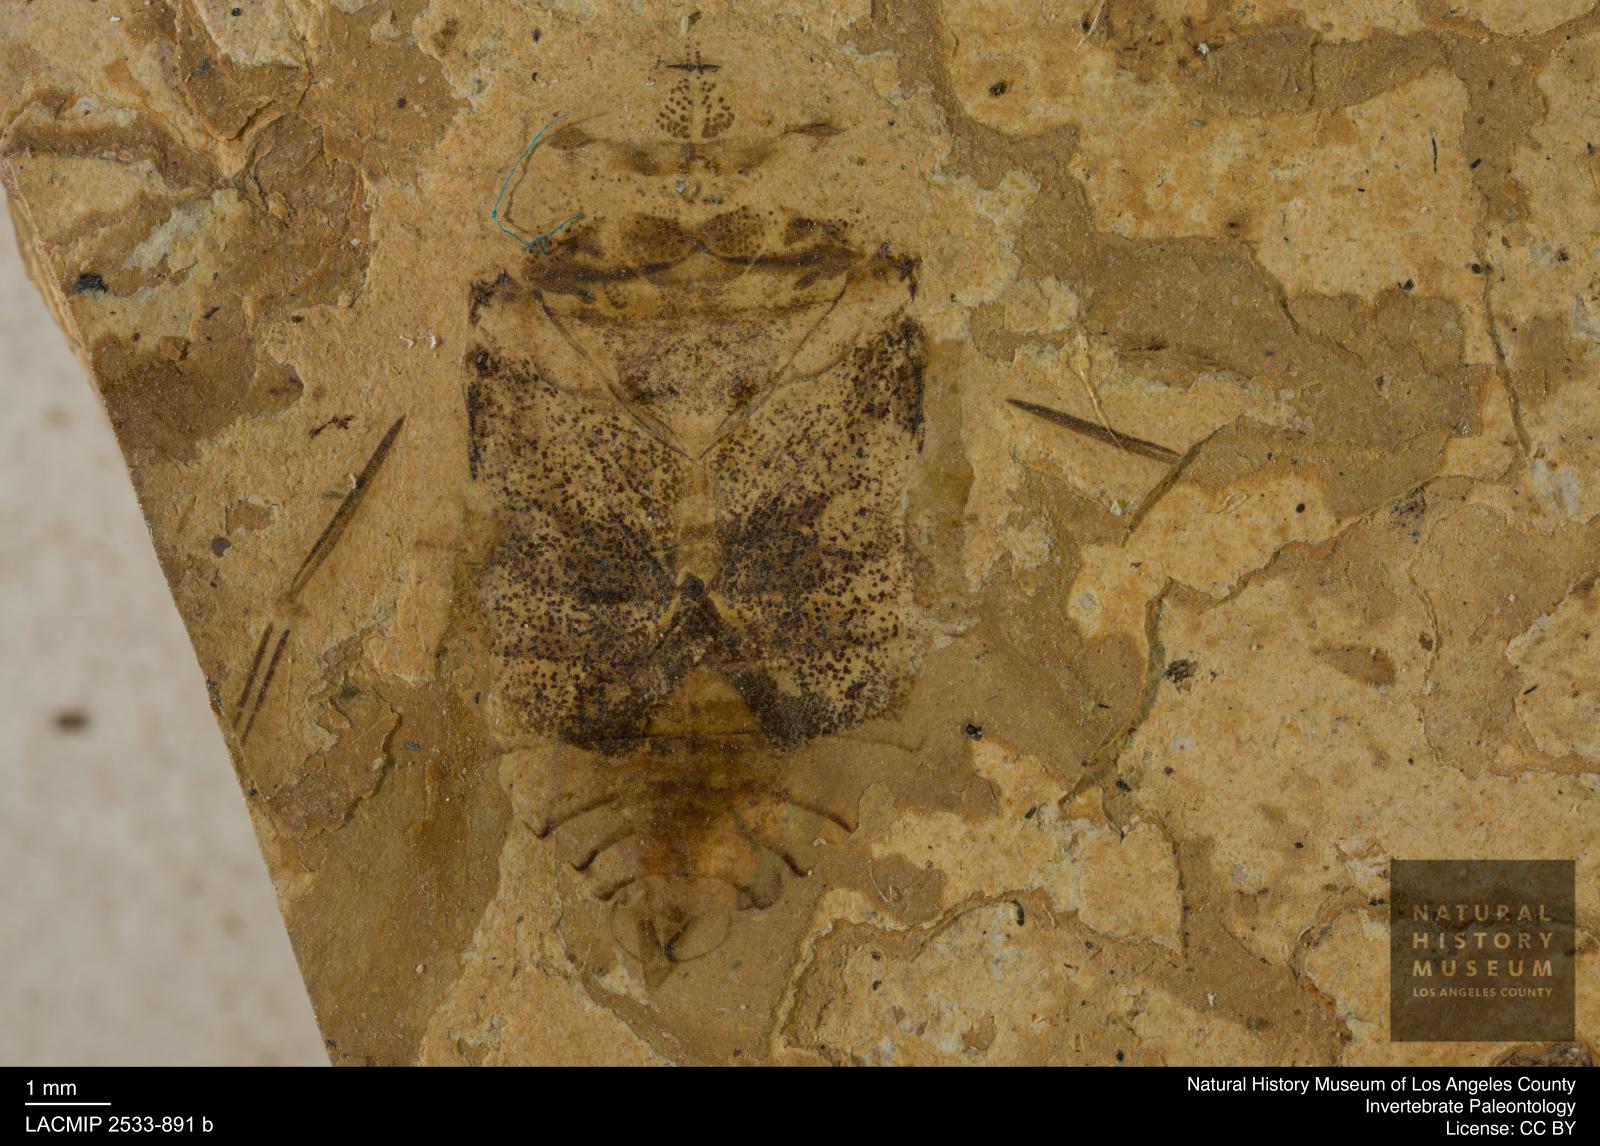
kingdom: Animalia
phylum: Arthropoda
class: Insecta
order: Hemiptera
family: Naucoridae
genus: Naucoris
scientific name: Naucoris rottensis
